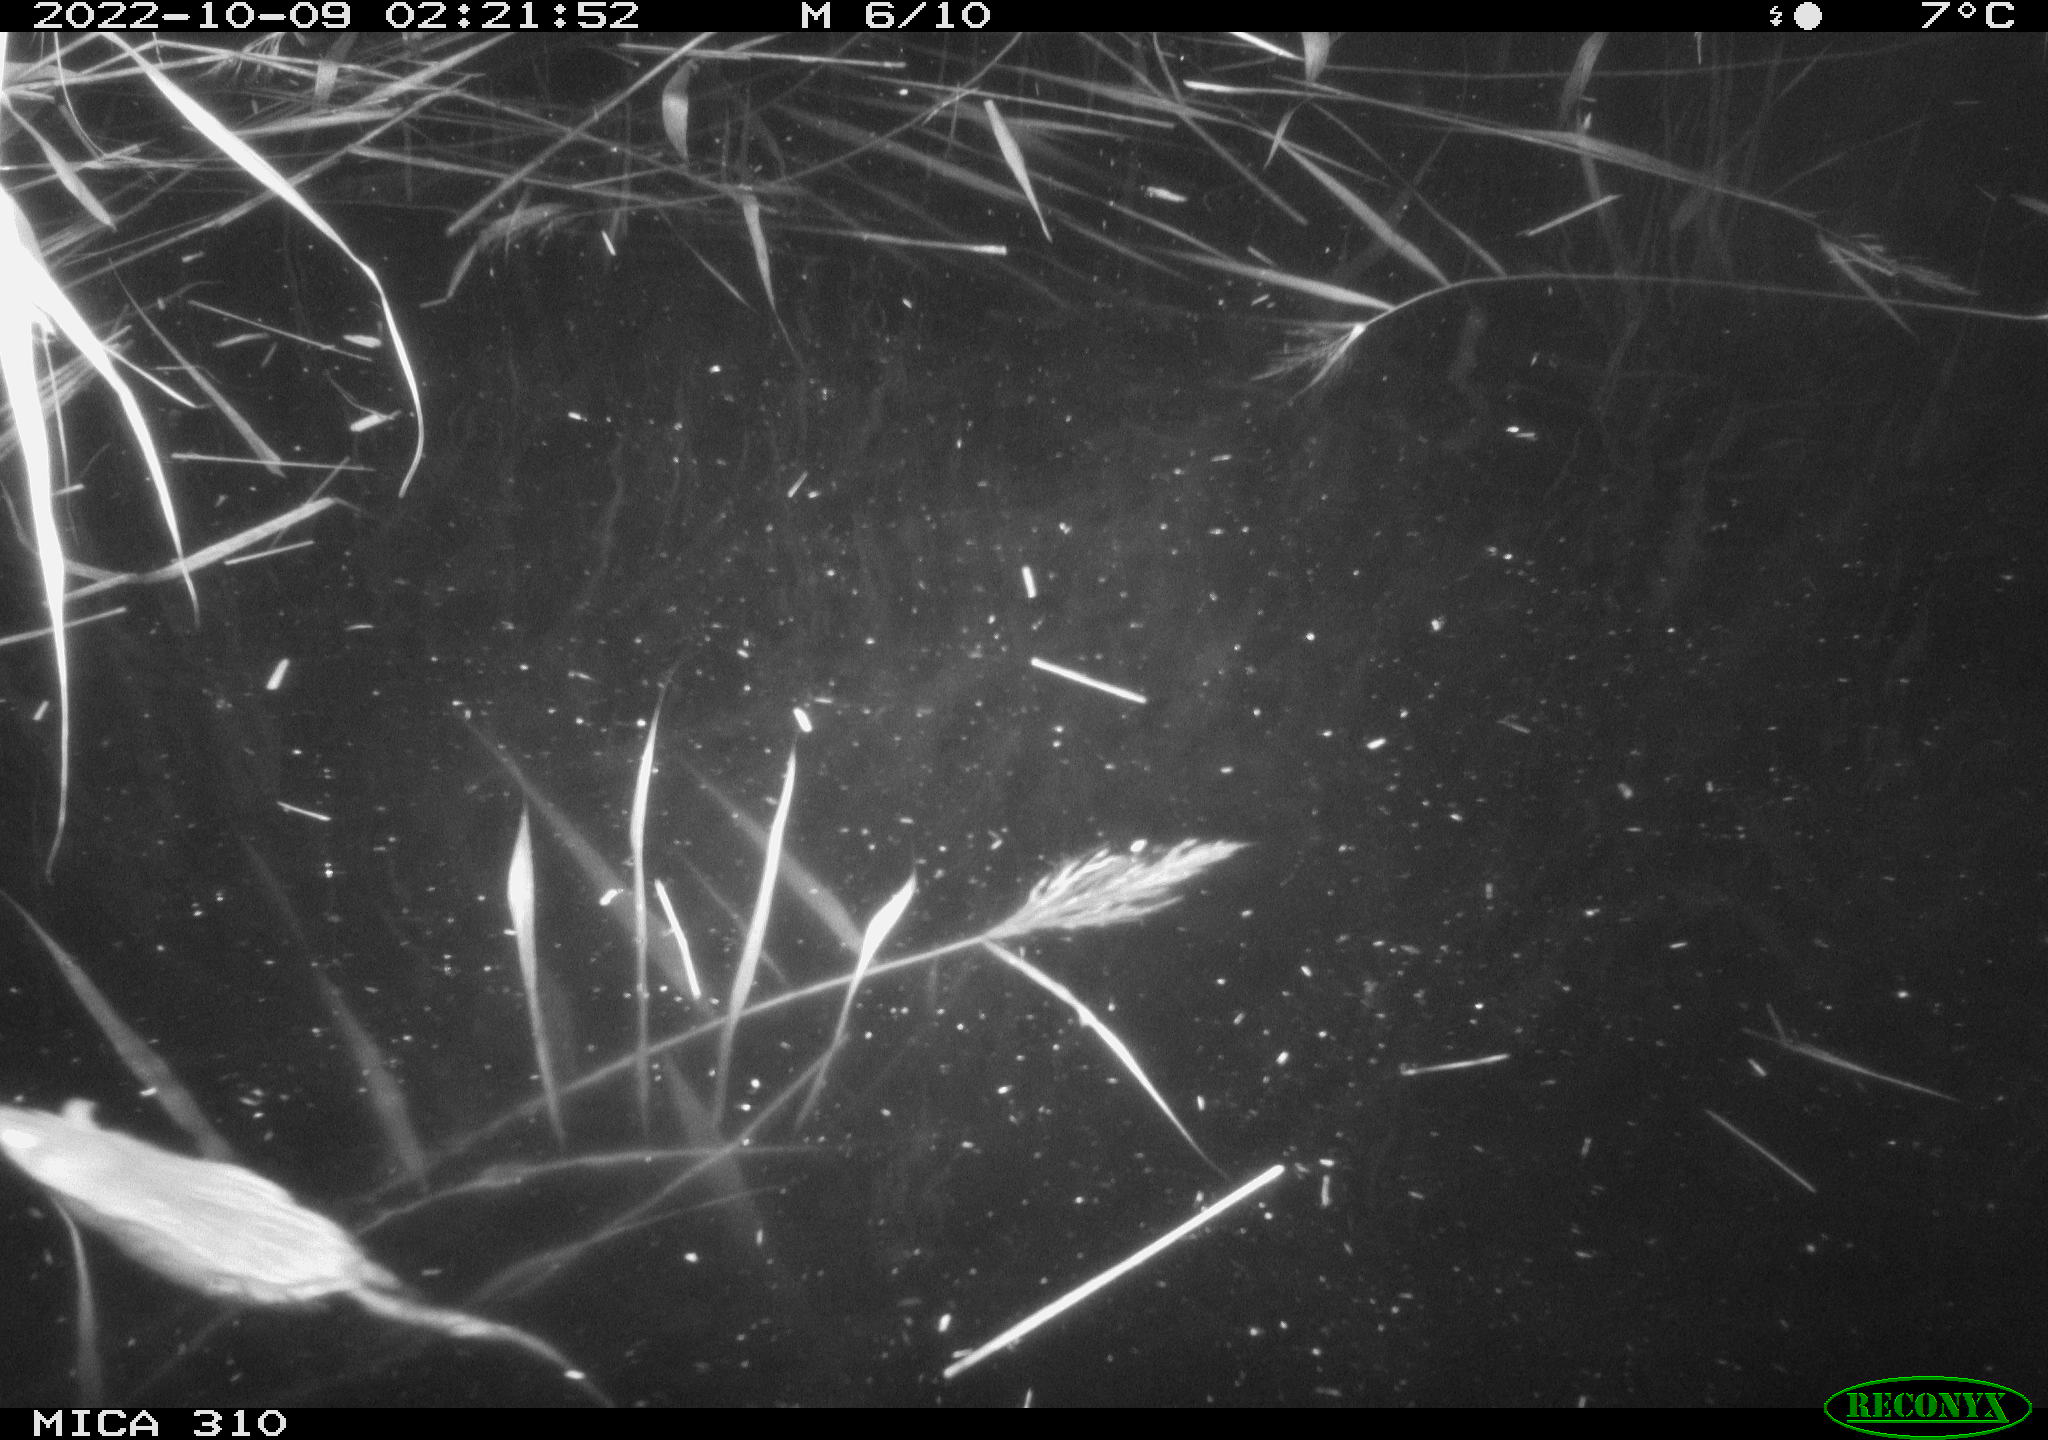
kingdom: Animalia
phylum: Chordata
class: Mammalia
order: Rodentia
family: Muridae
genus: Rattus
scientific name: Rattus norvegicus
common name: Brown rat
